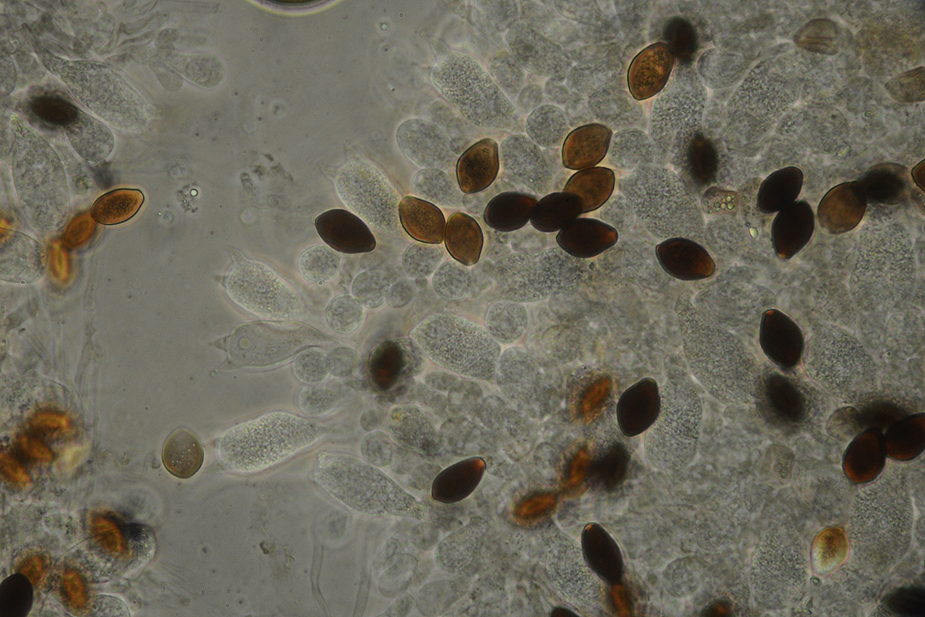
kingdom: Fungi
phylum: Basidiomycota
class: Agaricomycetes
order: Agaricales
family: Bolbitiaceae
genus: Panaeolus
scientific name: Panaeolus subfirmus
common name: fælled-glanshat
